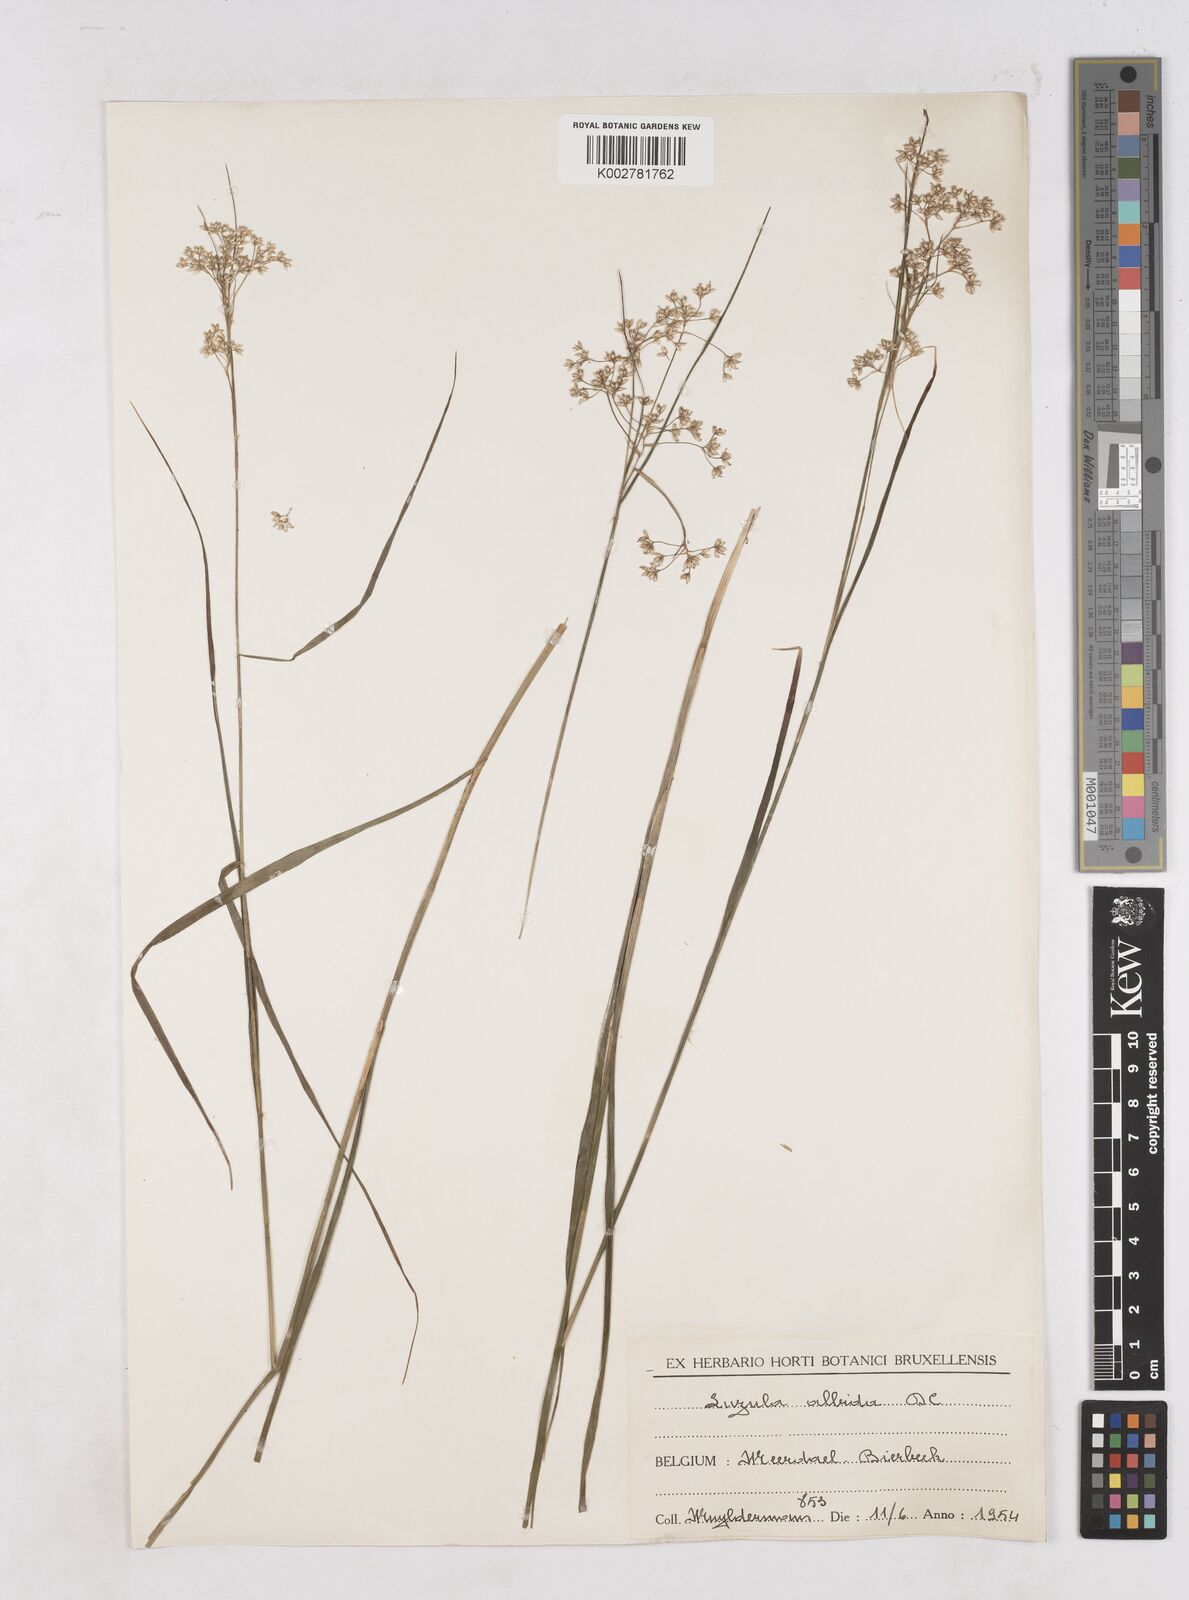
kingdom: Plantae
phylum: Tracheophyta
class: Liliopsida
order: Poales
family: Juncaceae
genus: Luzula
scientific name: Luzula luzuloides
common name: White wood-rush
